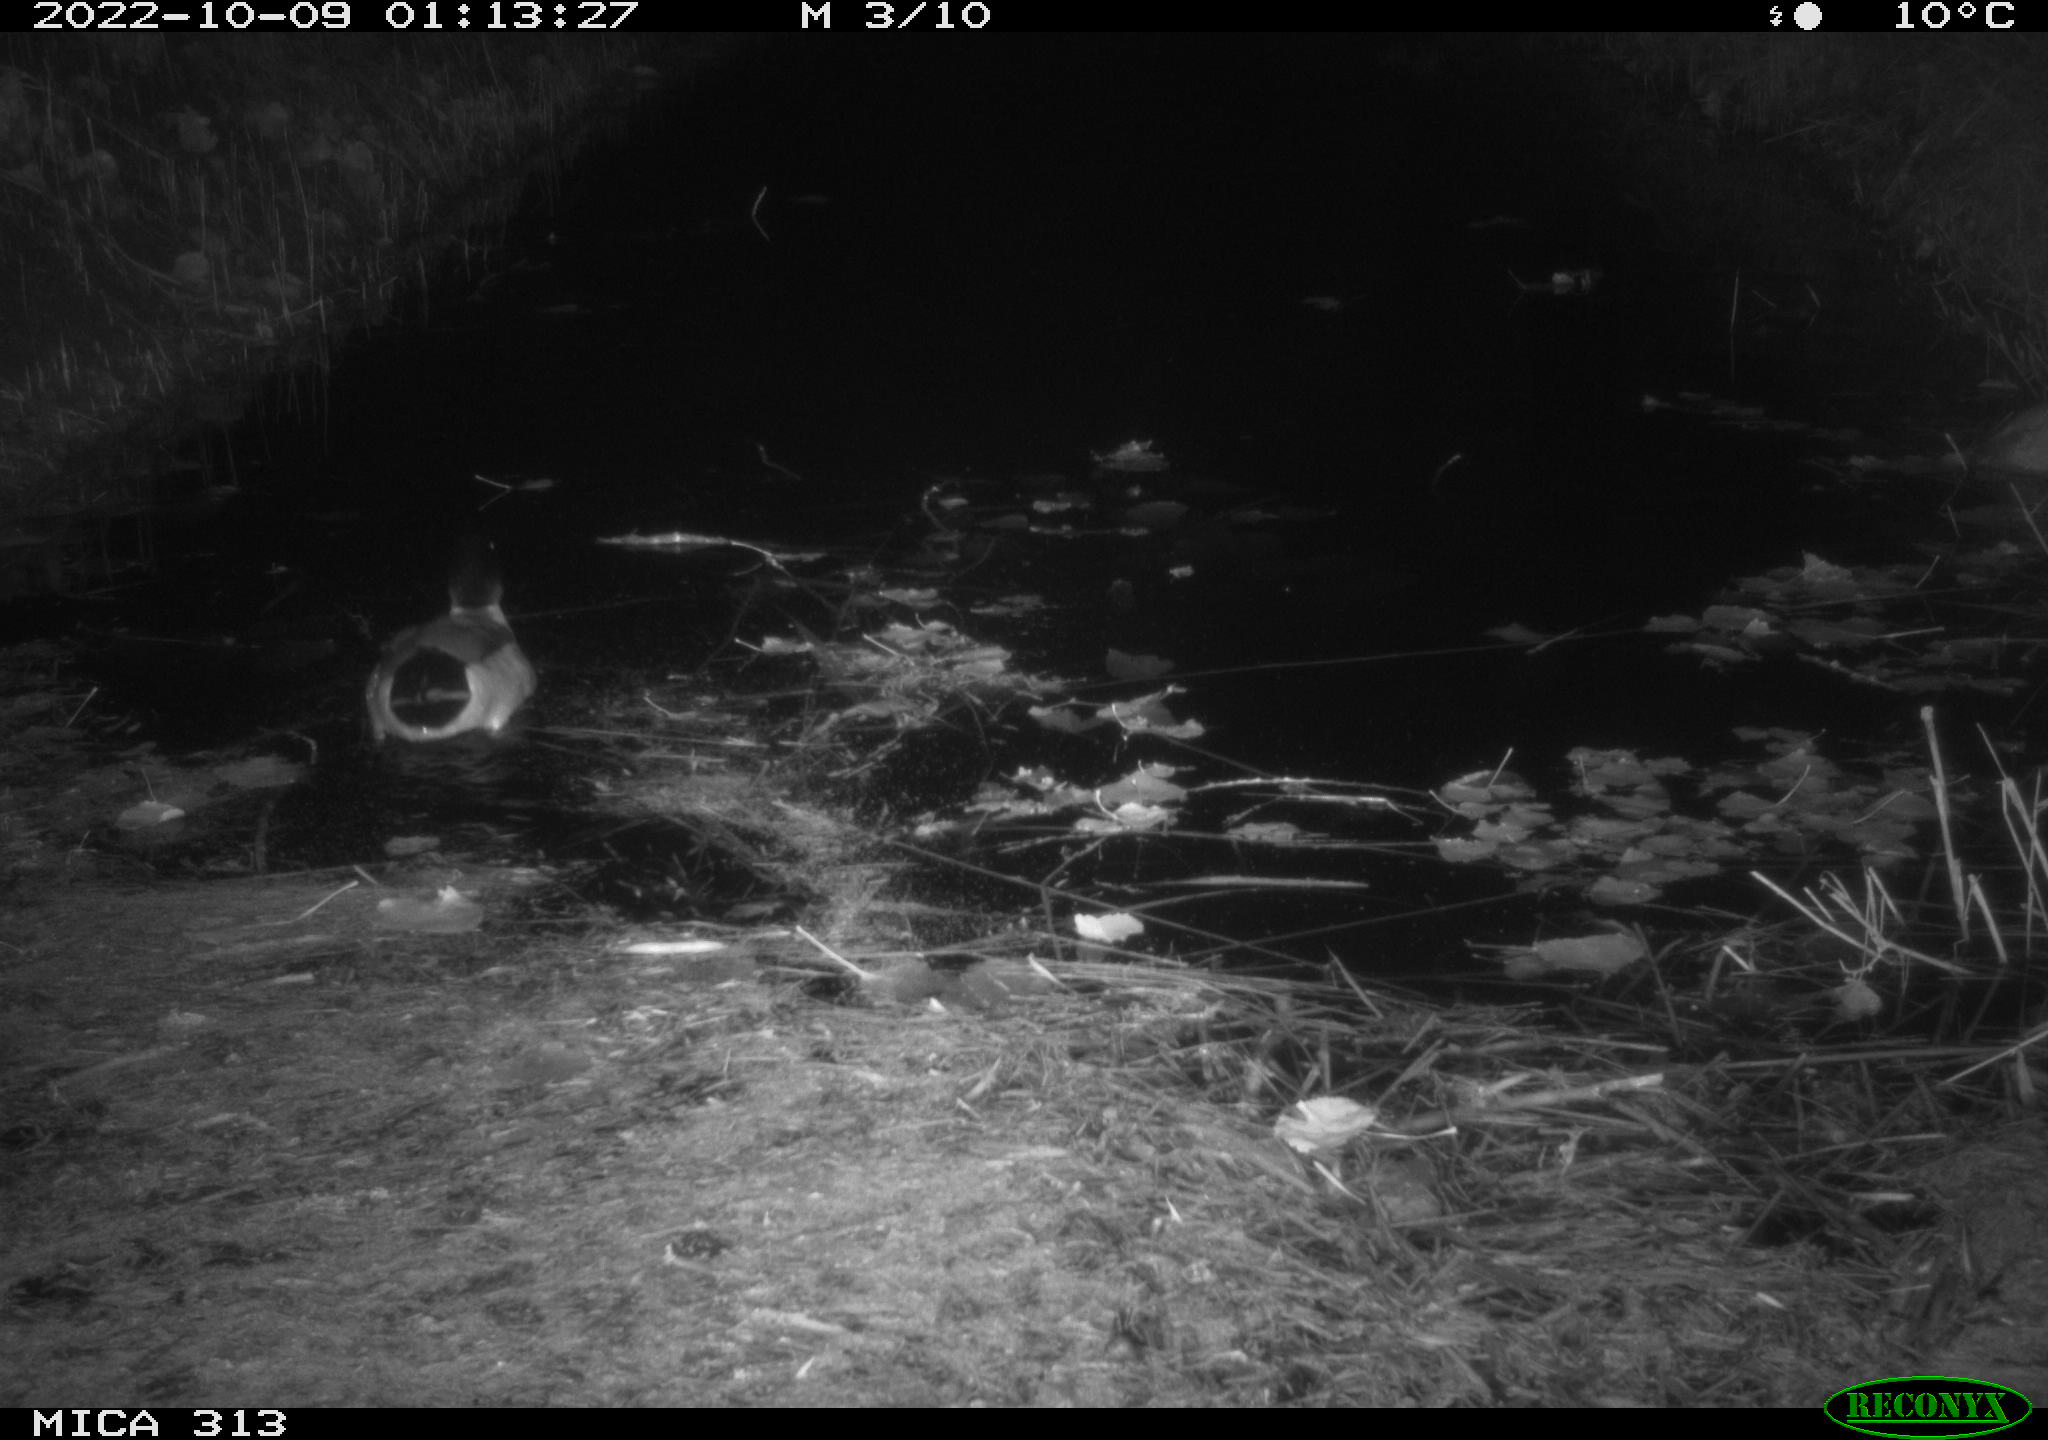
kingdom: Animalia
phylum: Chordata
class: Aves
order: Anseriformes
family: Anatidae
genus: Anas
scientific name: Anas
